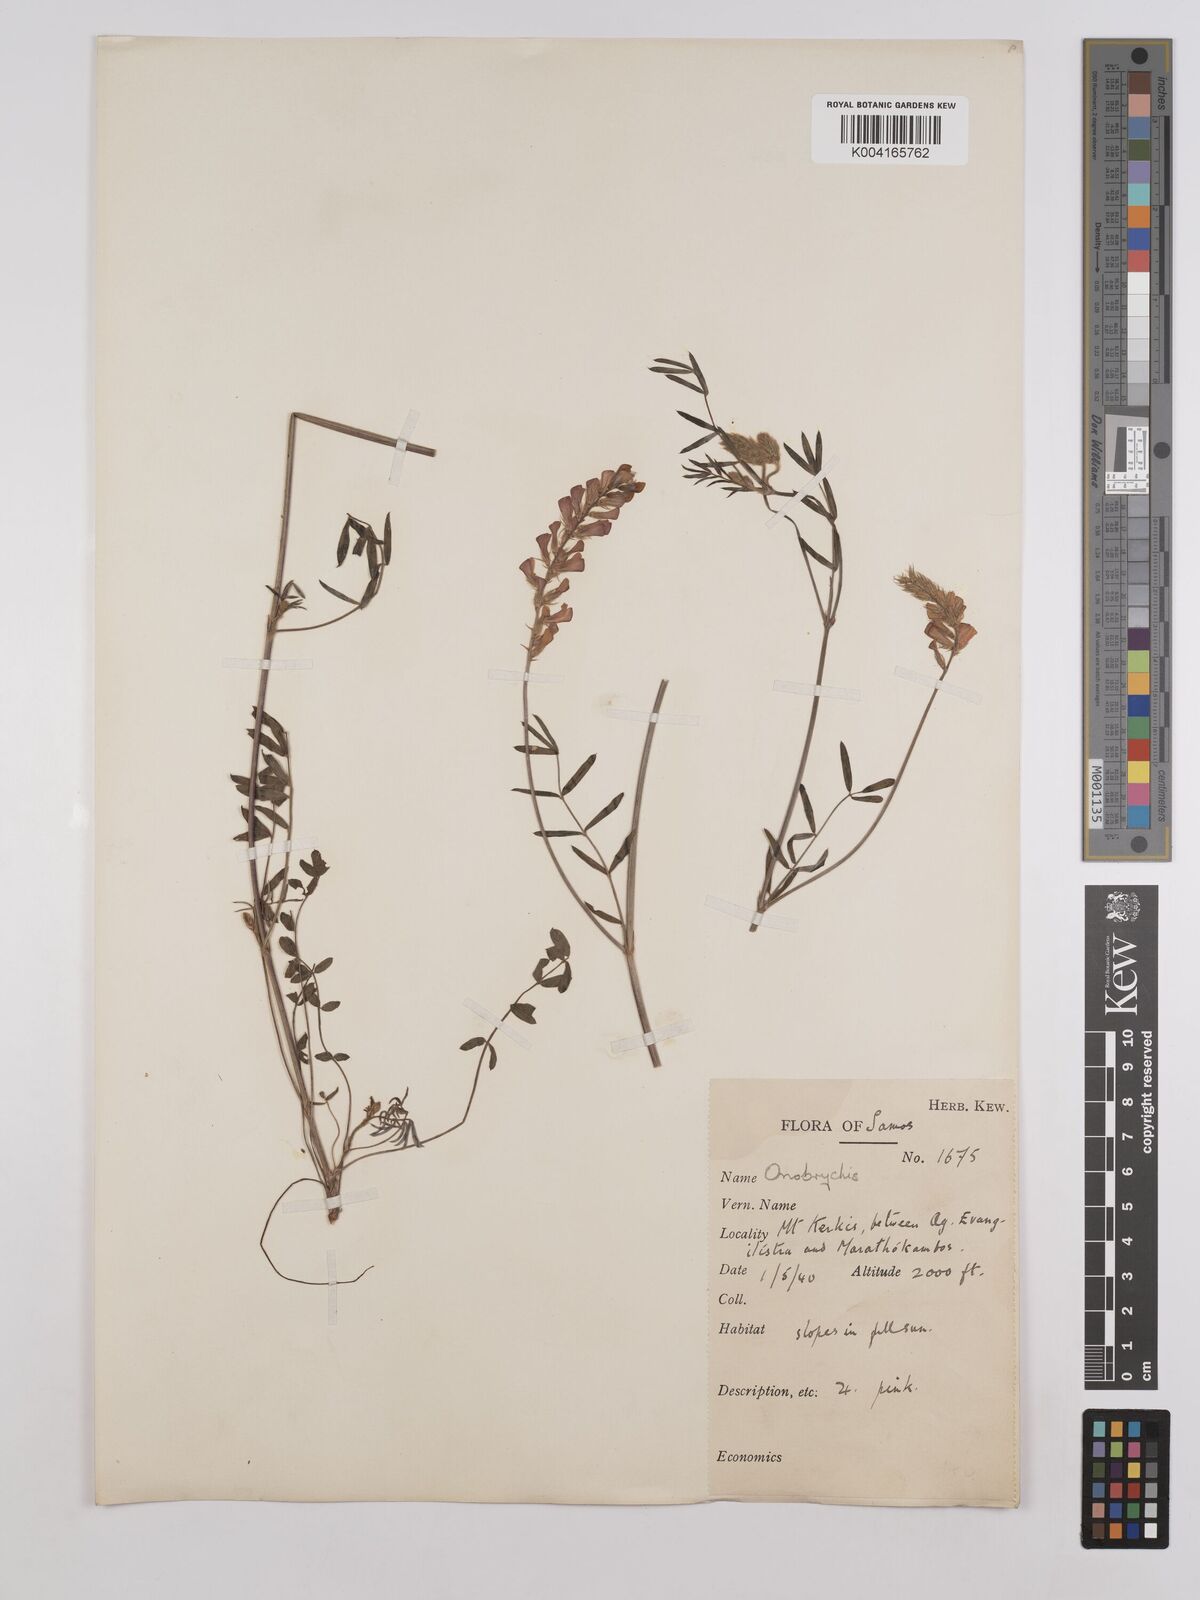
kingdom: Plantae
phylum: Tracheophyta
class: Magnoliopsida
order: Fabales
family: Fabaceae
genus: Onobrychis
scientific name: Onobrychis arenaria
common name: Sand esparcet
